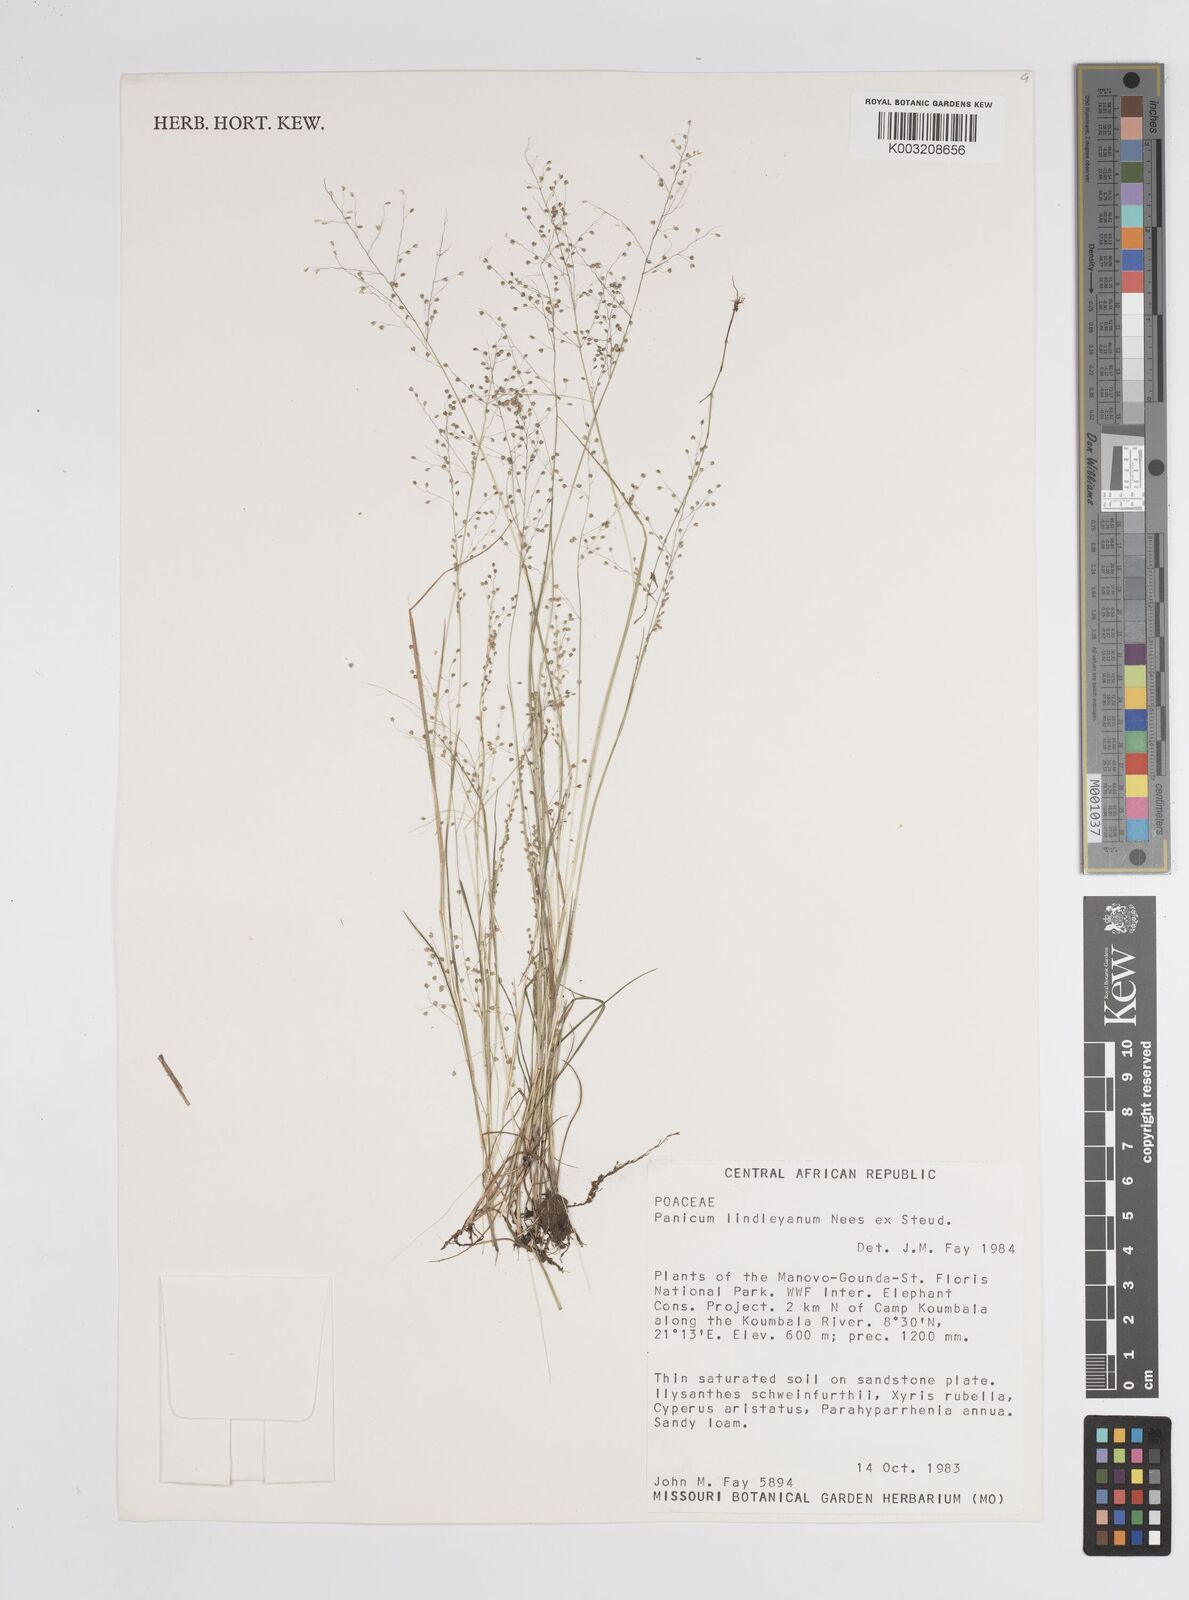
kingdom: Plantae
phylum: Tracheophyta
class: Liliopsida
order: Poales
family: Poaceae
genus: Panicum
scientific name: Panicum
